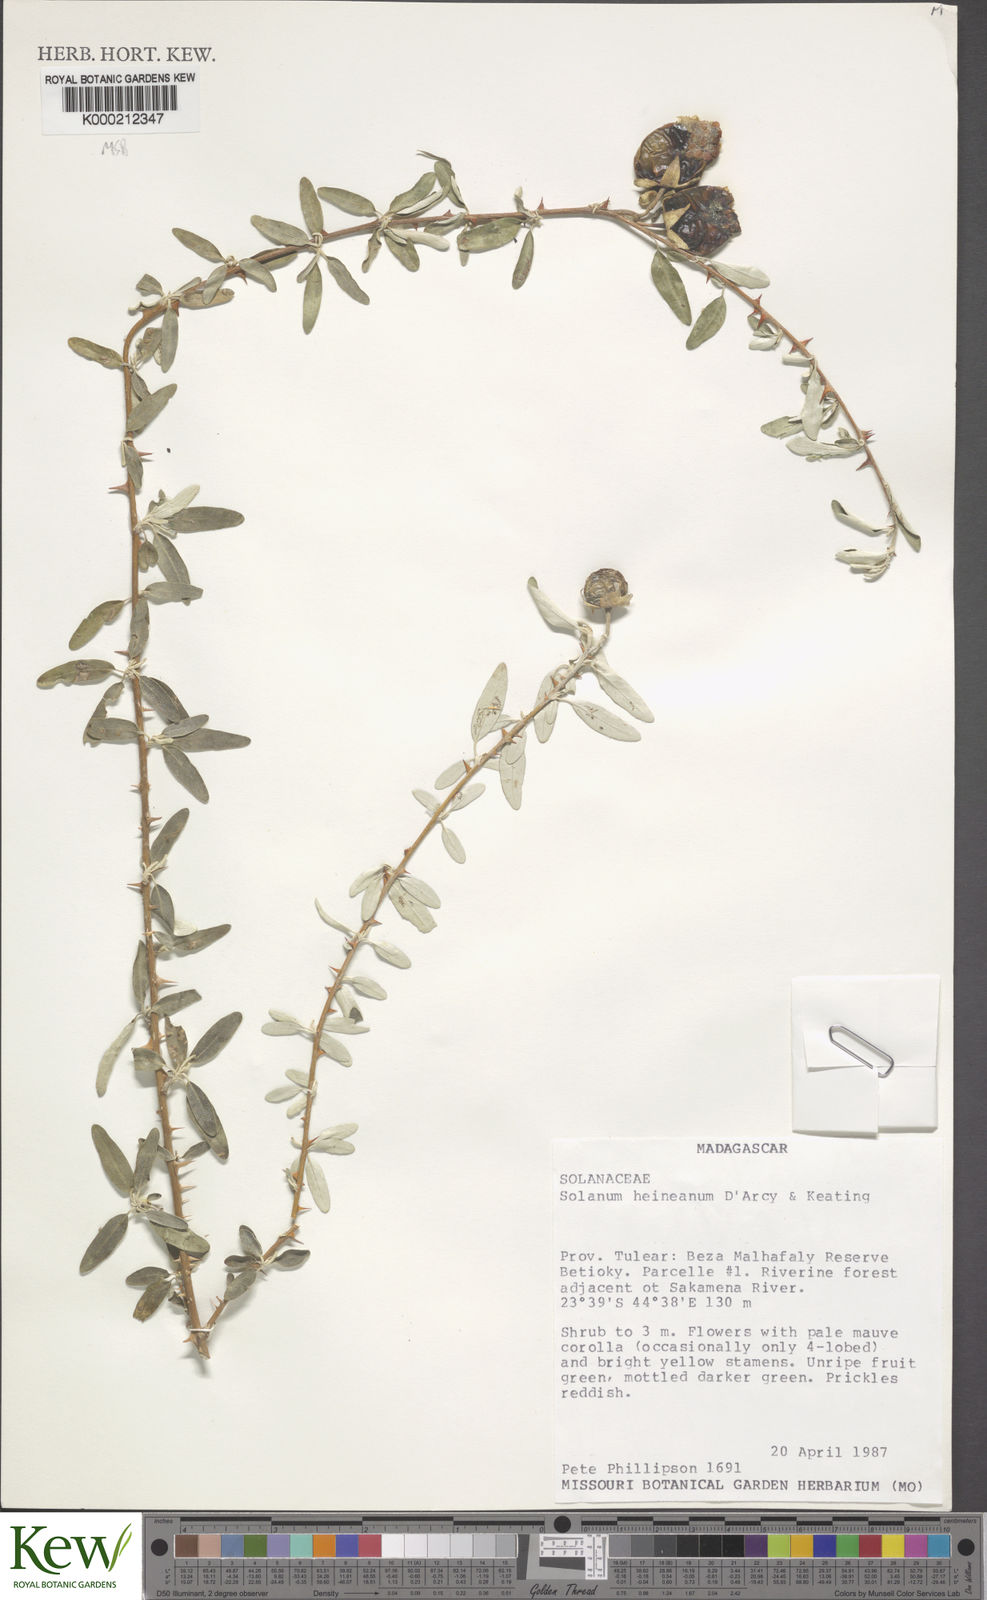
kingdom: Plantae
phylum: Tracheophyta
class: Magnoliopsida
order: Solanales
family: Solanaceae
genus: Solanum
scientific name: Solanum heinianum
